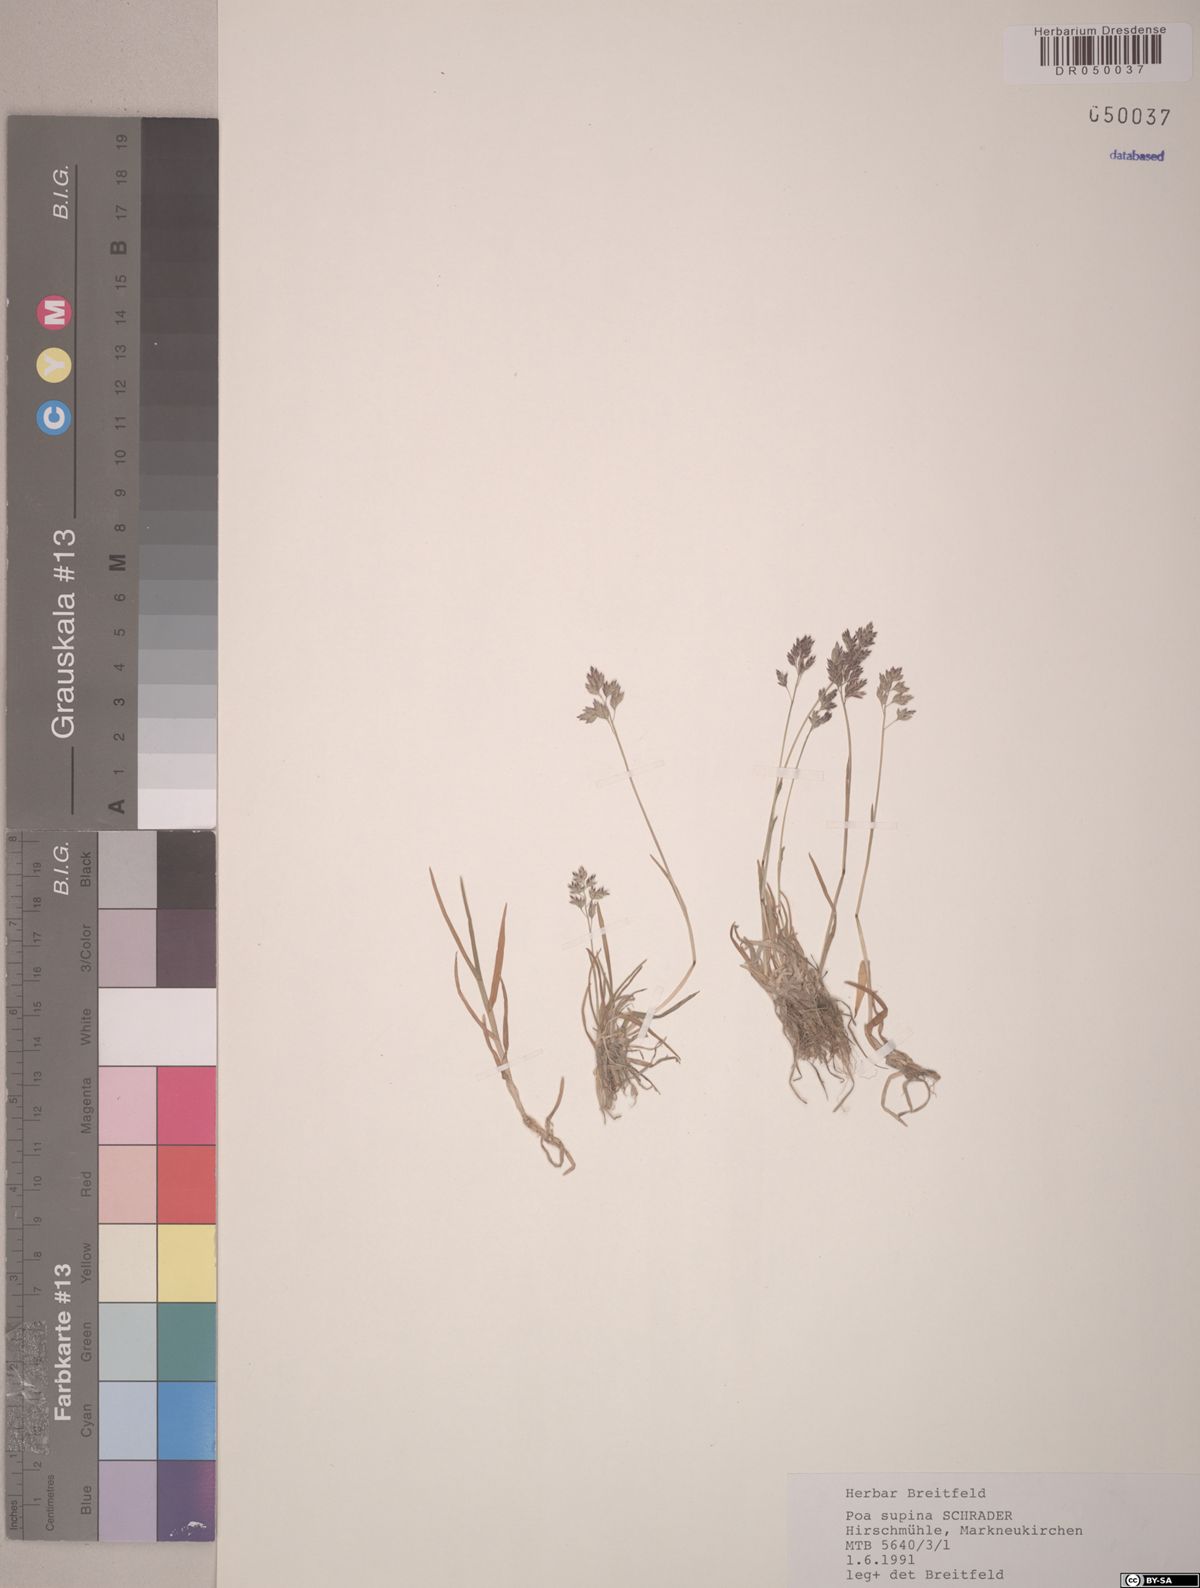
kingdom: Plantae
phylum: Tracheophyta
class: Liliopsida
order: Poales
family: Poaceae
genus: Poa
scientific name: Poa supina
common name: Supina bluegrass
